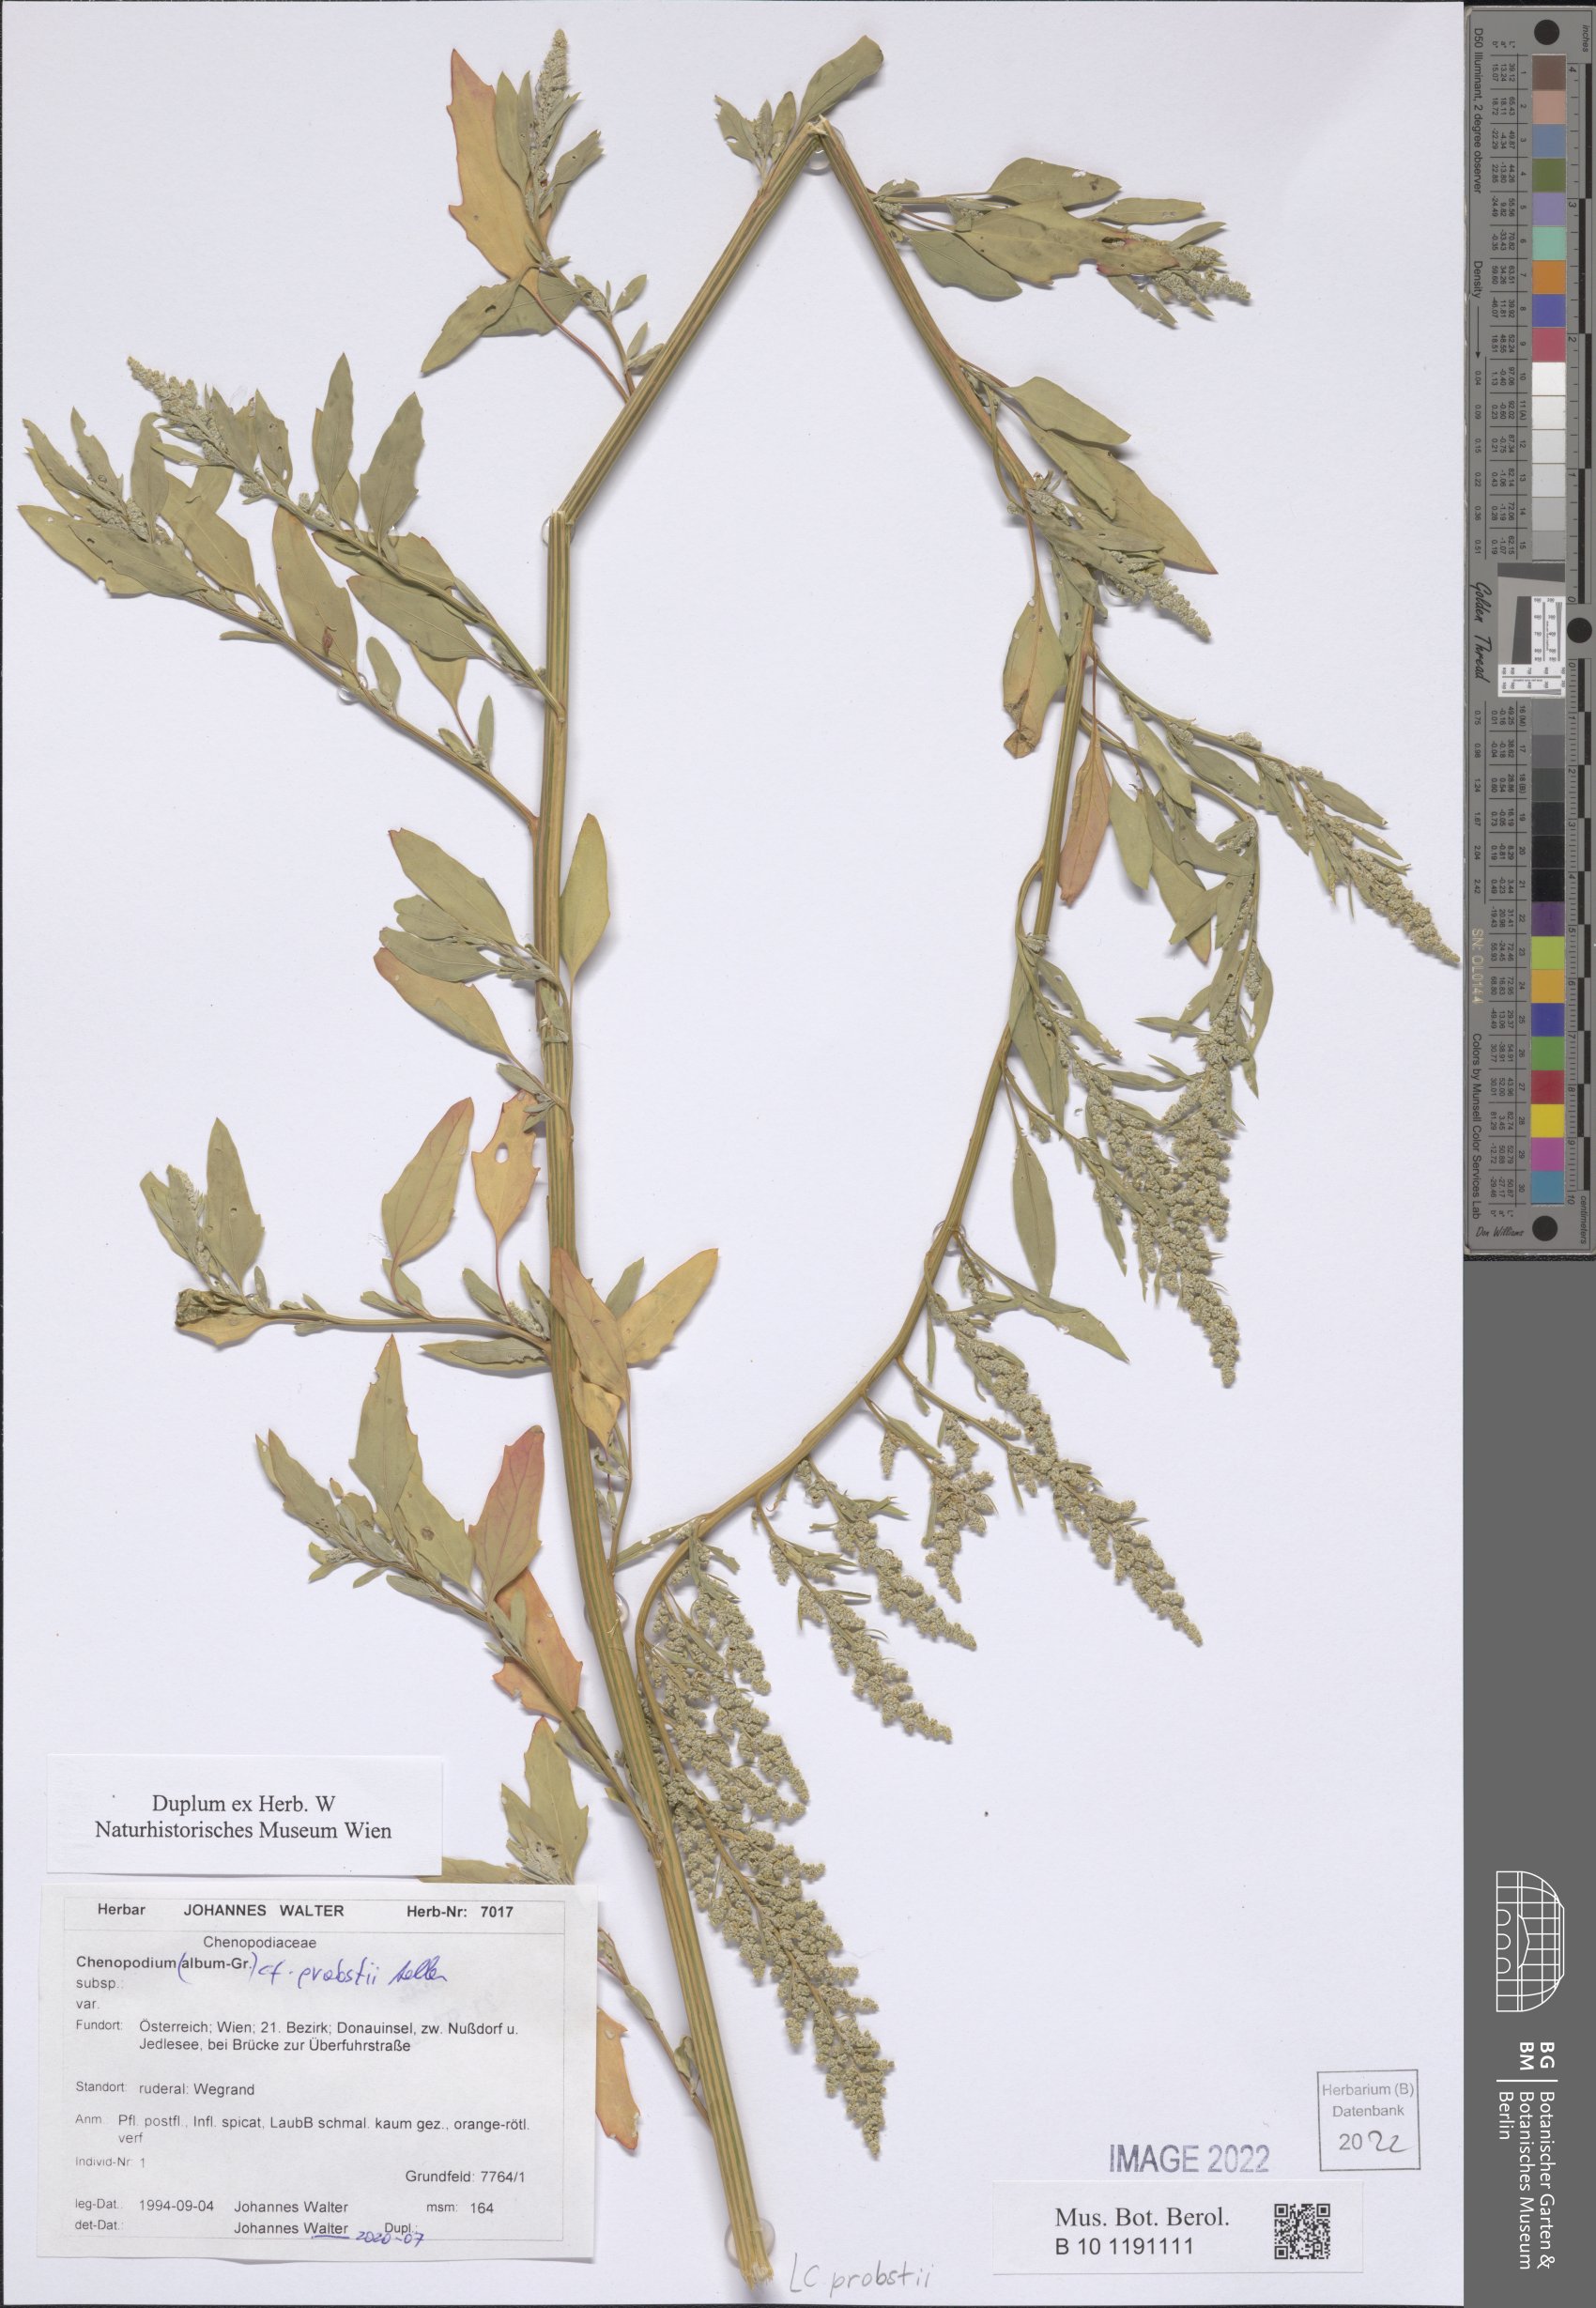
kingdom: Plantae
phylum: Tracheophyta
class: Magnoliopsida
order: Caryophyllales
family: Amaranthaceae
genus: Chenopodium
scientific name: Chenopodium probstii
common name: Probst's goosefoot
